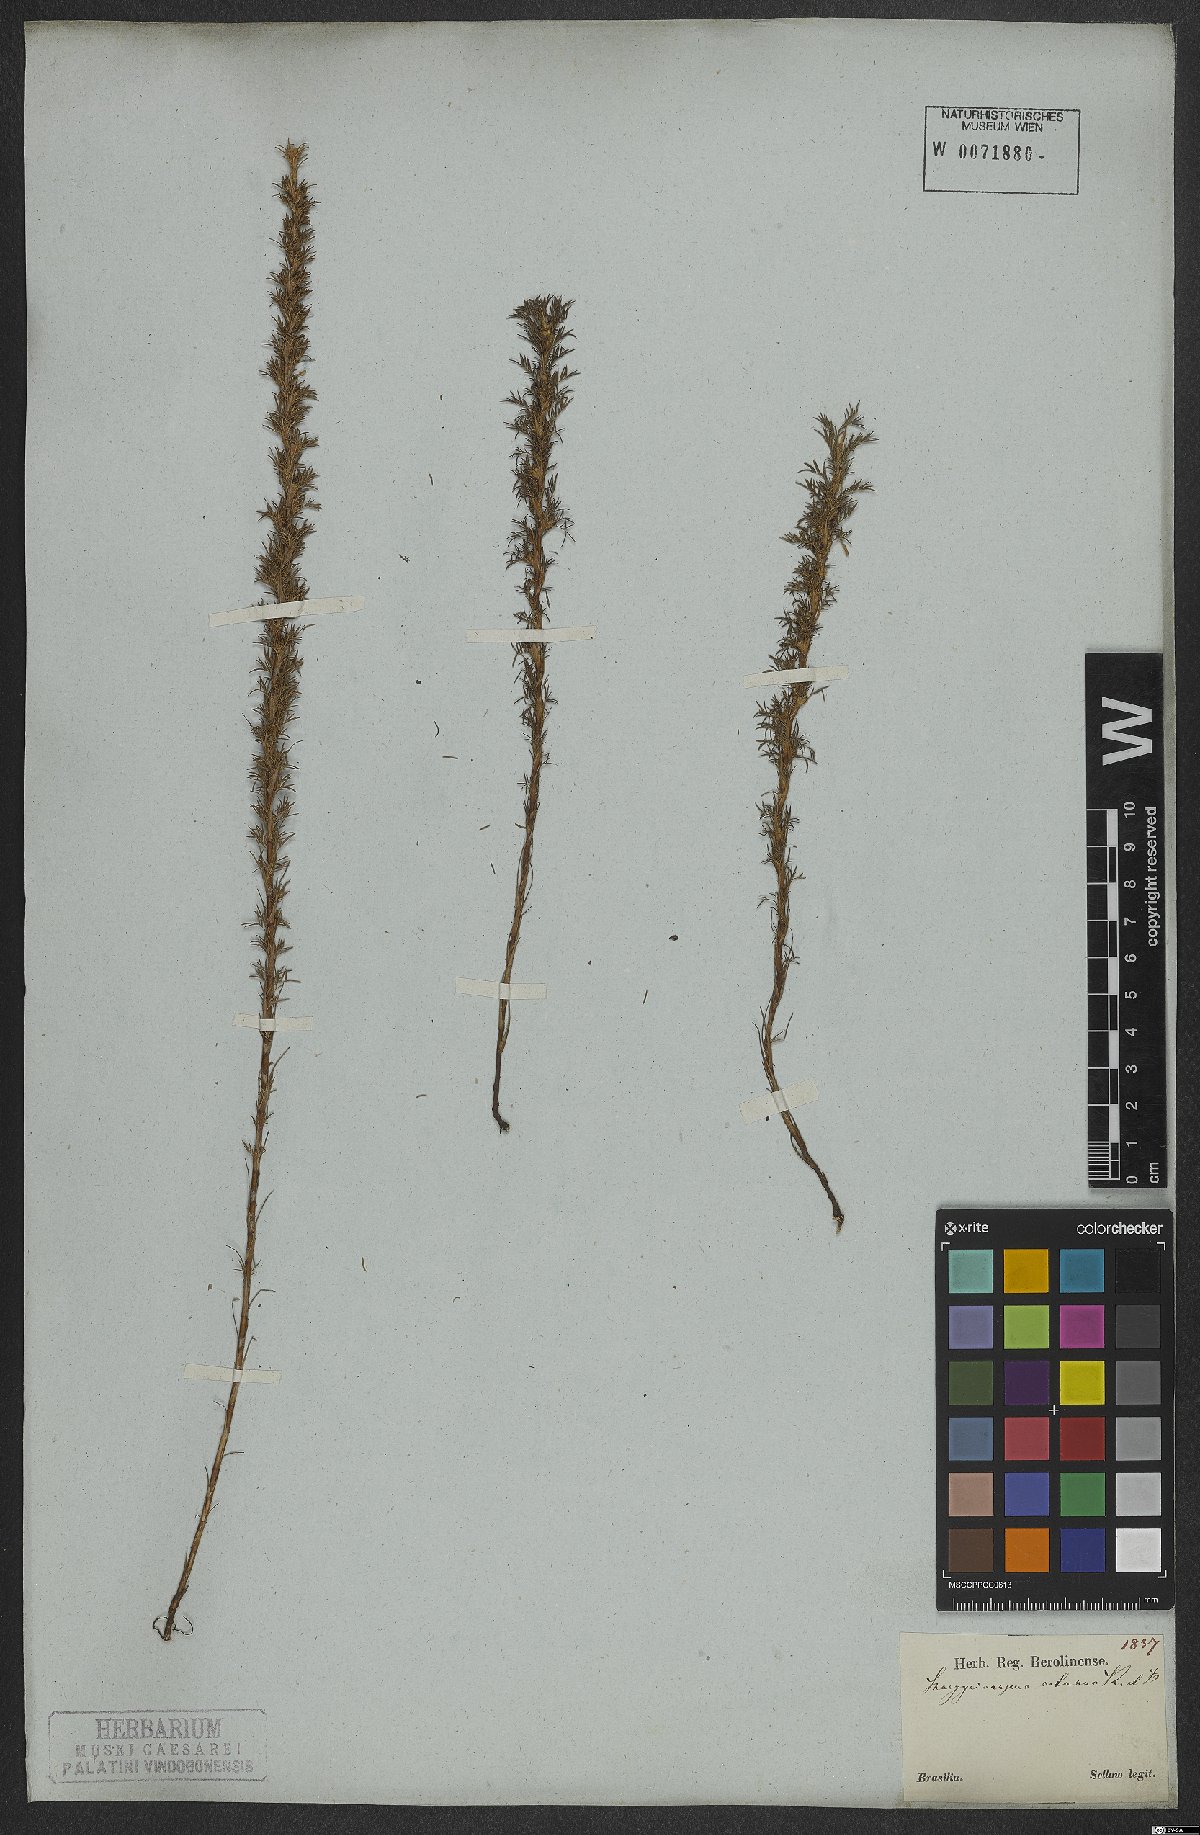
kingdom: Plantae
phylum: Tracheophyta
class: Magnoliopsida
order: Rosales
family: Rosaceae
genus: Margyricarpus
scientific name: Margyricarpus pinnatus
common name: Pearlfruit
